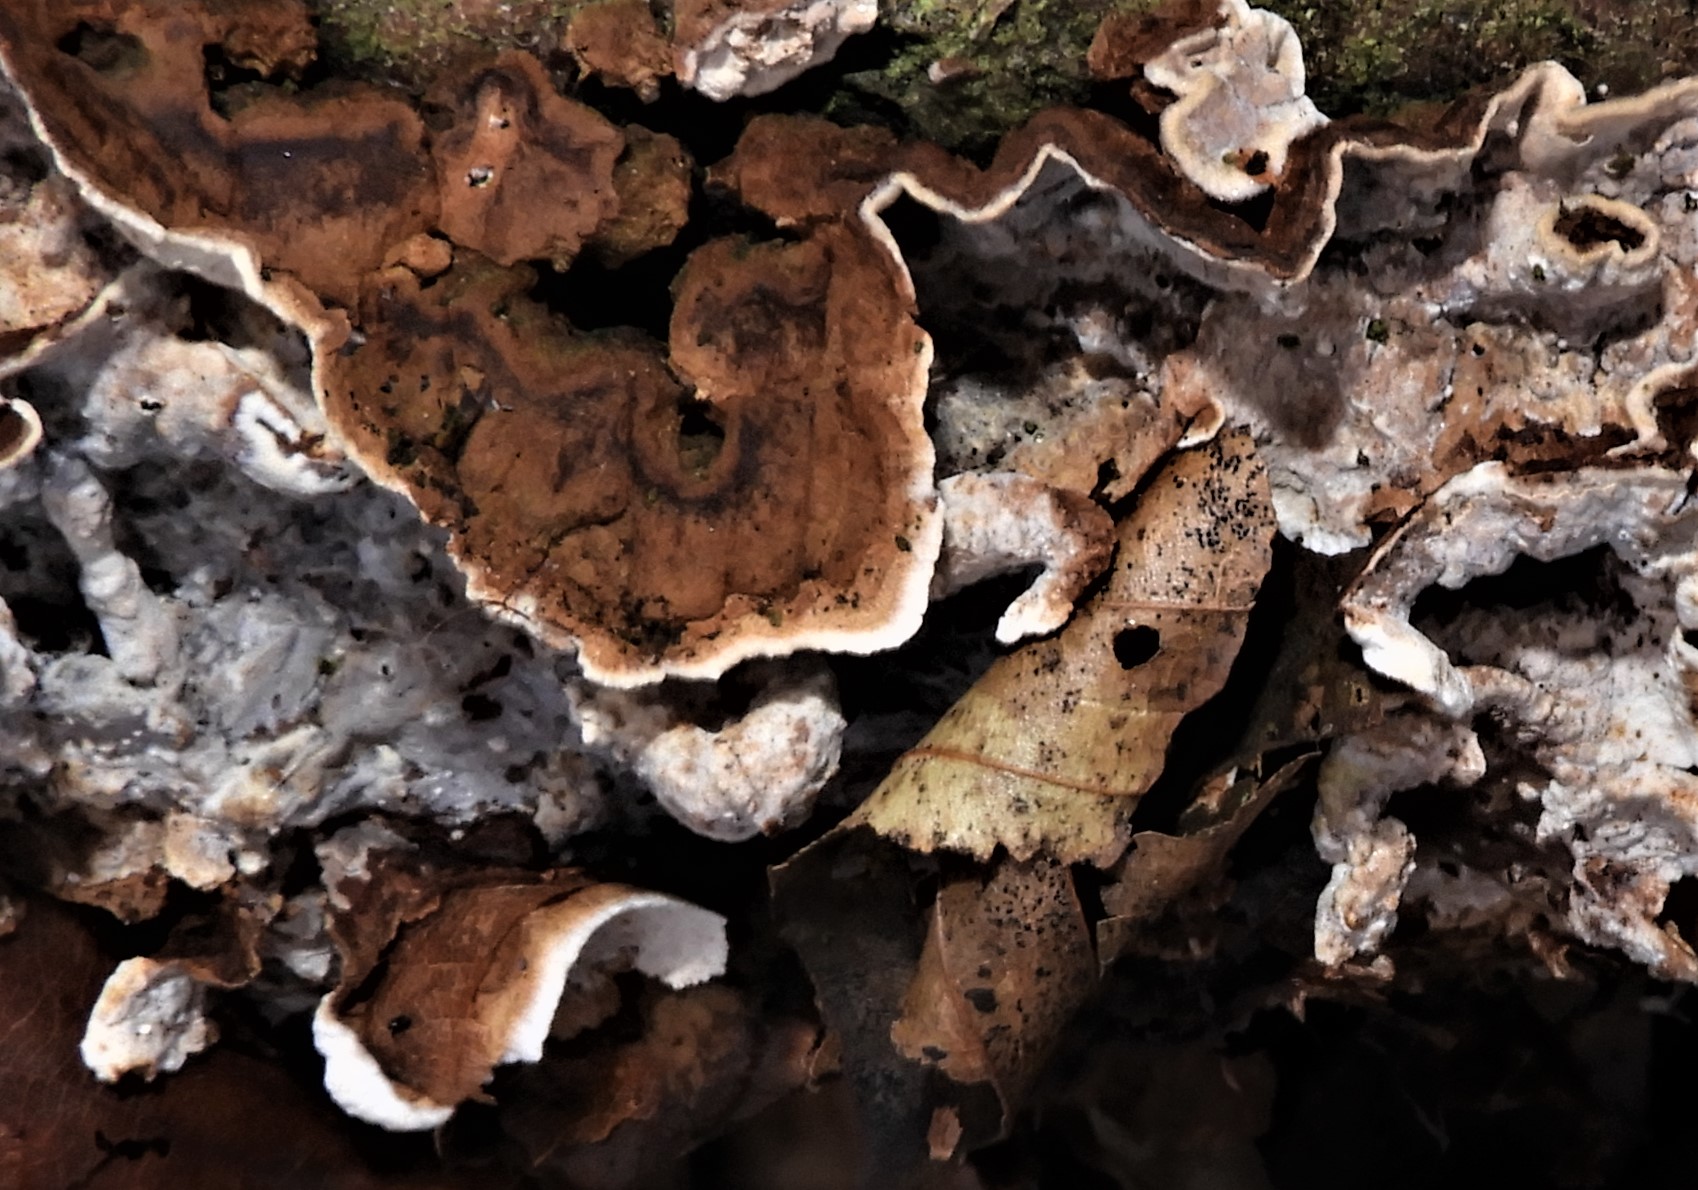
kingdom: Fungi
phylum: Basidiomycota
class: Agaricomycetes
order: Russulales
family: Hericiaceae
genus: Laxitextum
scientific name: Laxitextum bicolor
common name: tvefarvet filtskind
